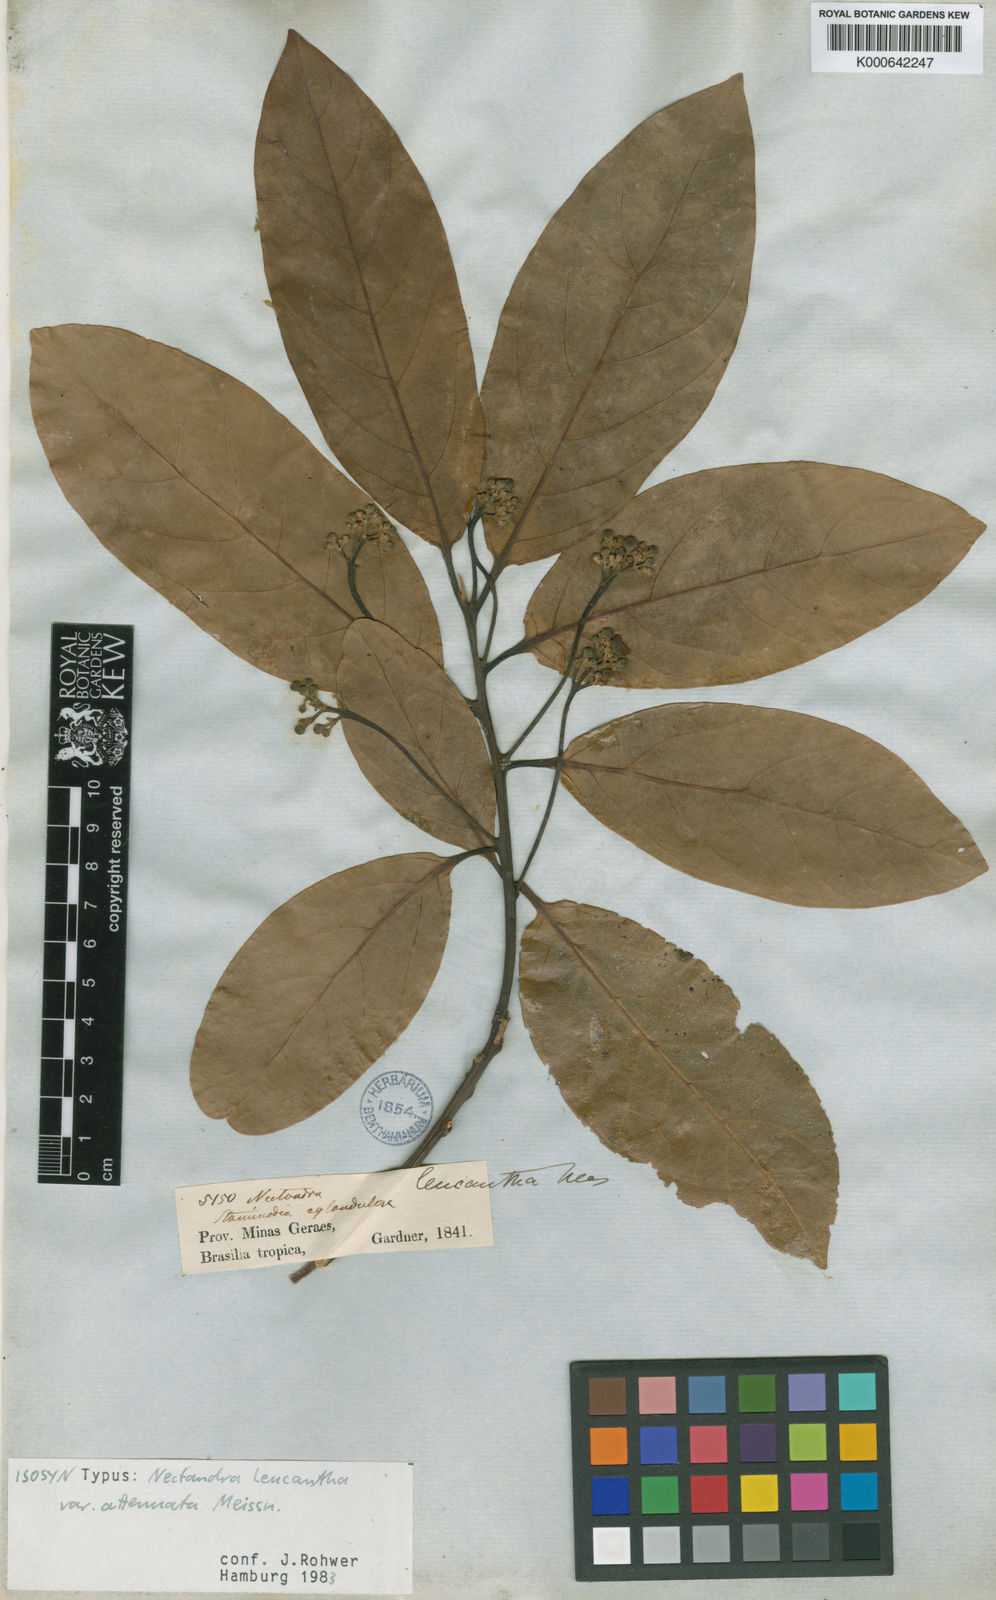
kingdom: Plantae
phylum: Tracheophyta
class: Magnoliopsida
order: Laurales
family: Lauraceae
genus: Nectandra
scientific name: Nectandra hihua
